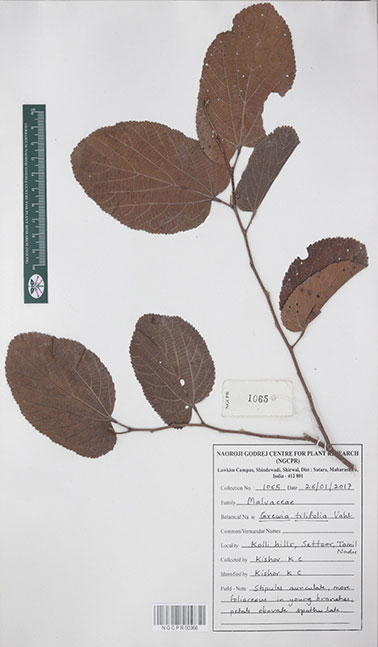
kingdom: Plantae
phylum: Tracheophyta
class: Magnoliopsida
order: Malvales
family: Malvaceae
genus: Grewia
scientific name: Grewia tiliifolia
